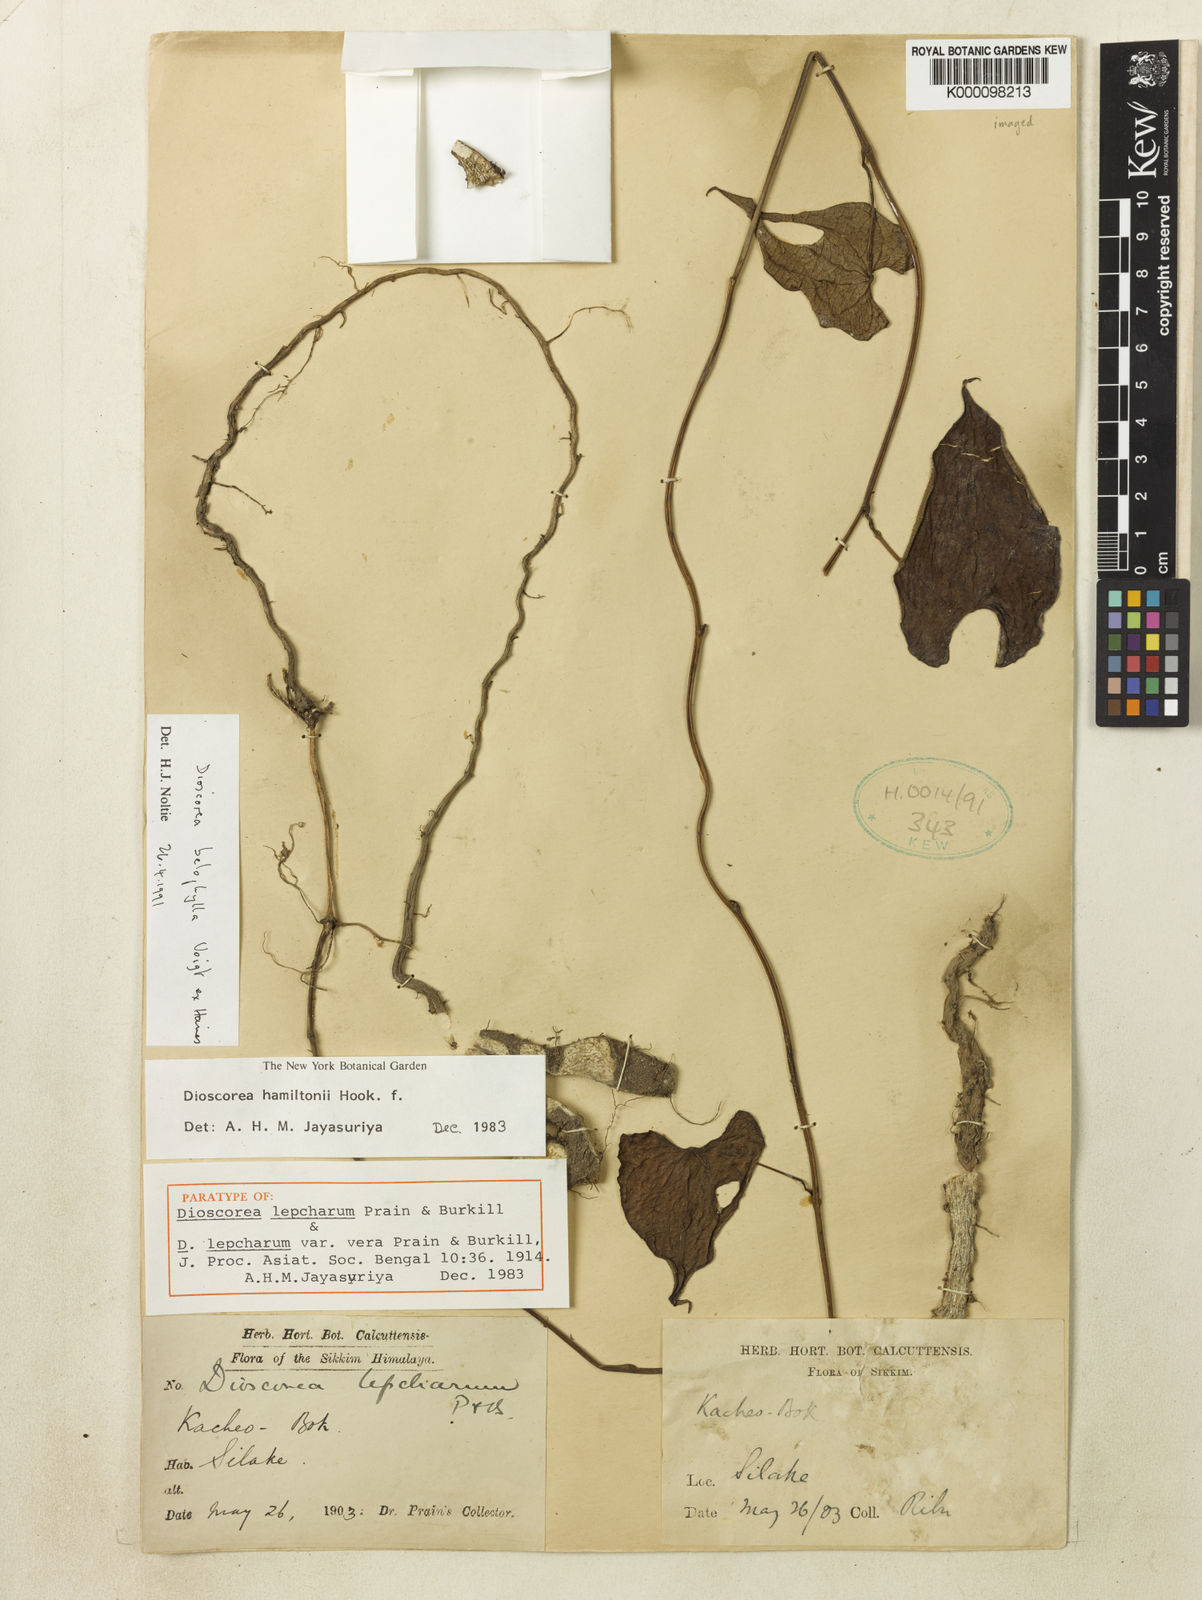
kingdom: Plantae
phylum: Tracheophyta
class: Liliopsida
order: Dioscoreales
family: Dioscoreaceae
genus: Dioscorea
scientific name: Dioscorea lepcharum
